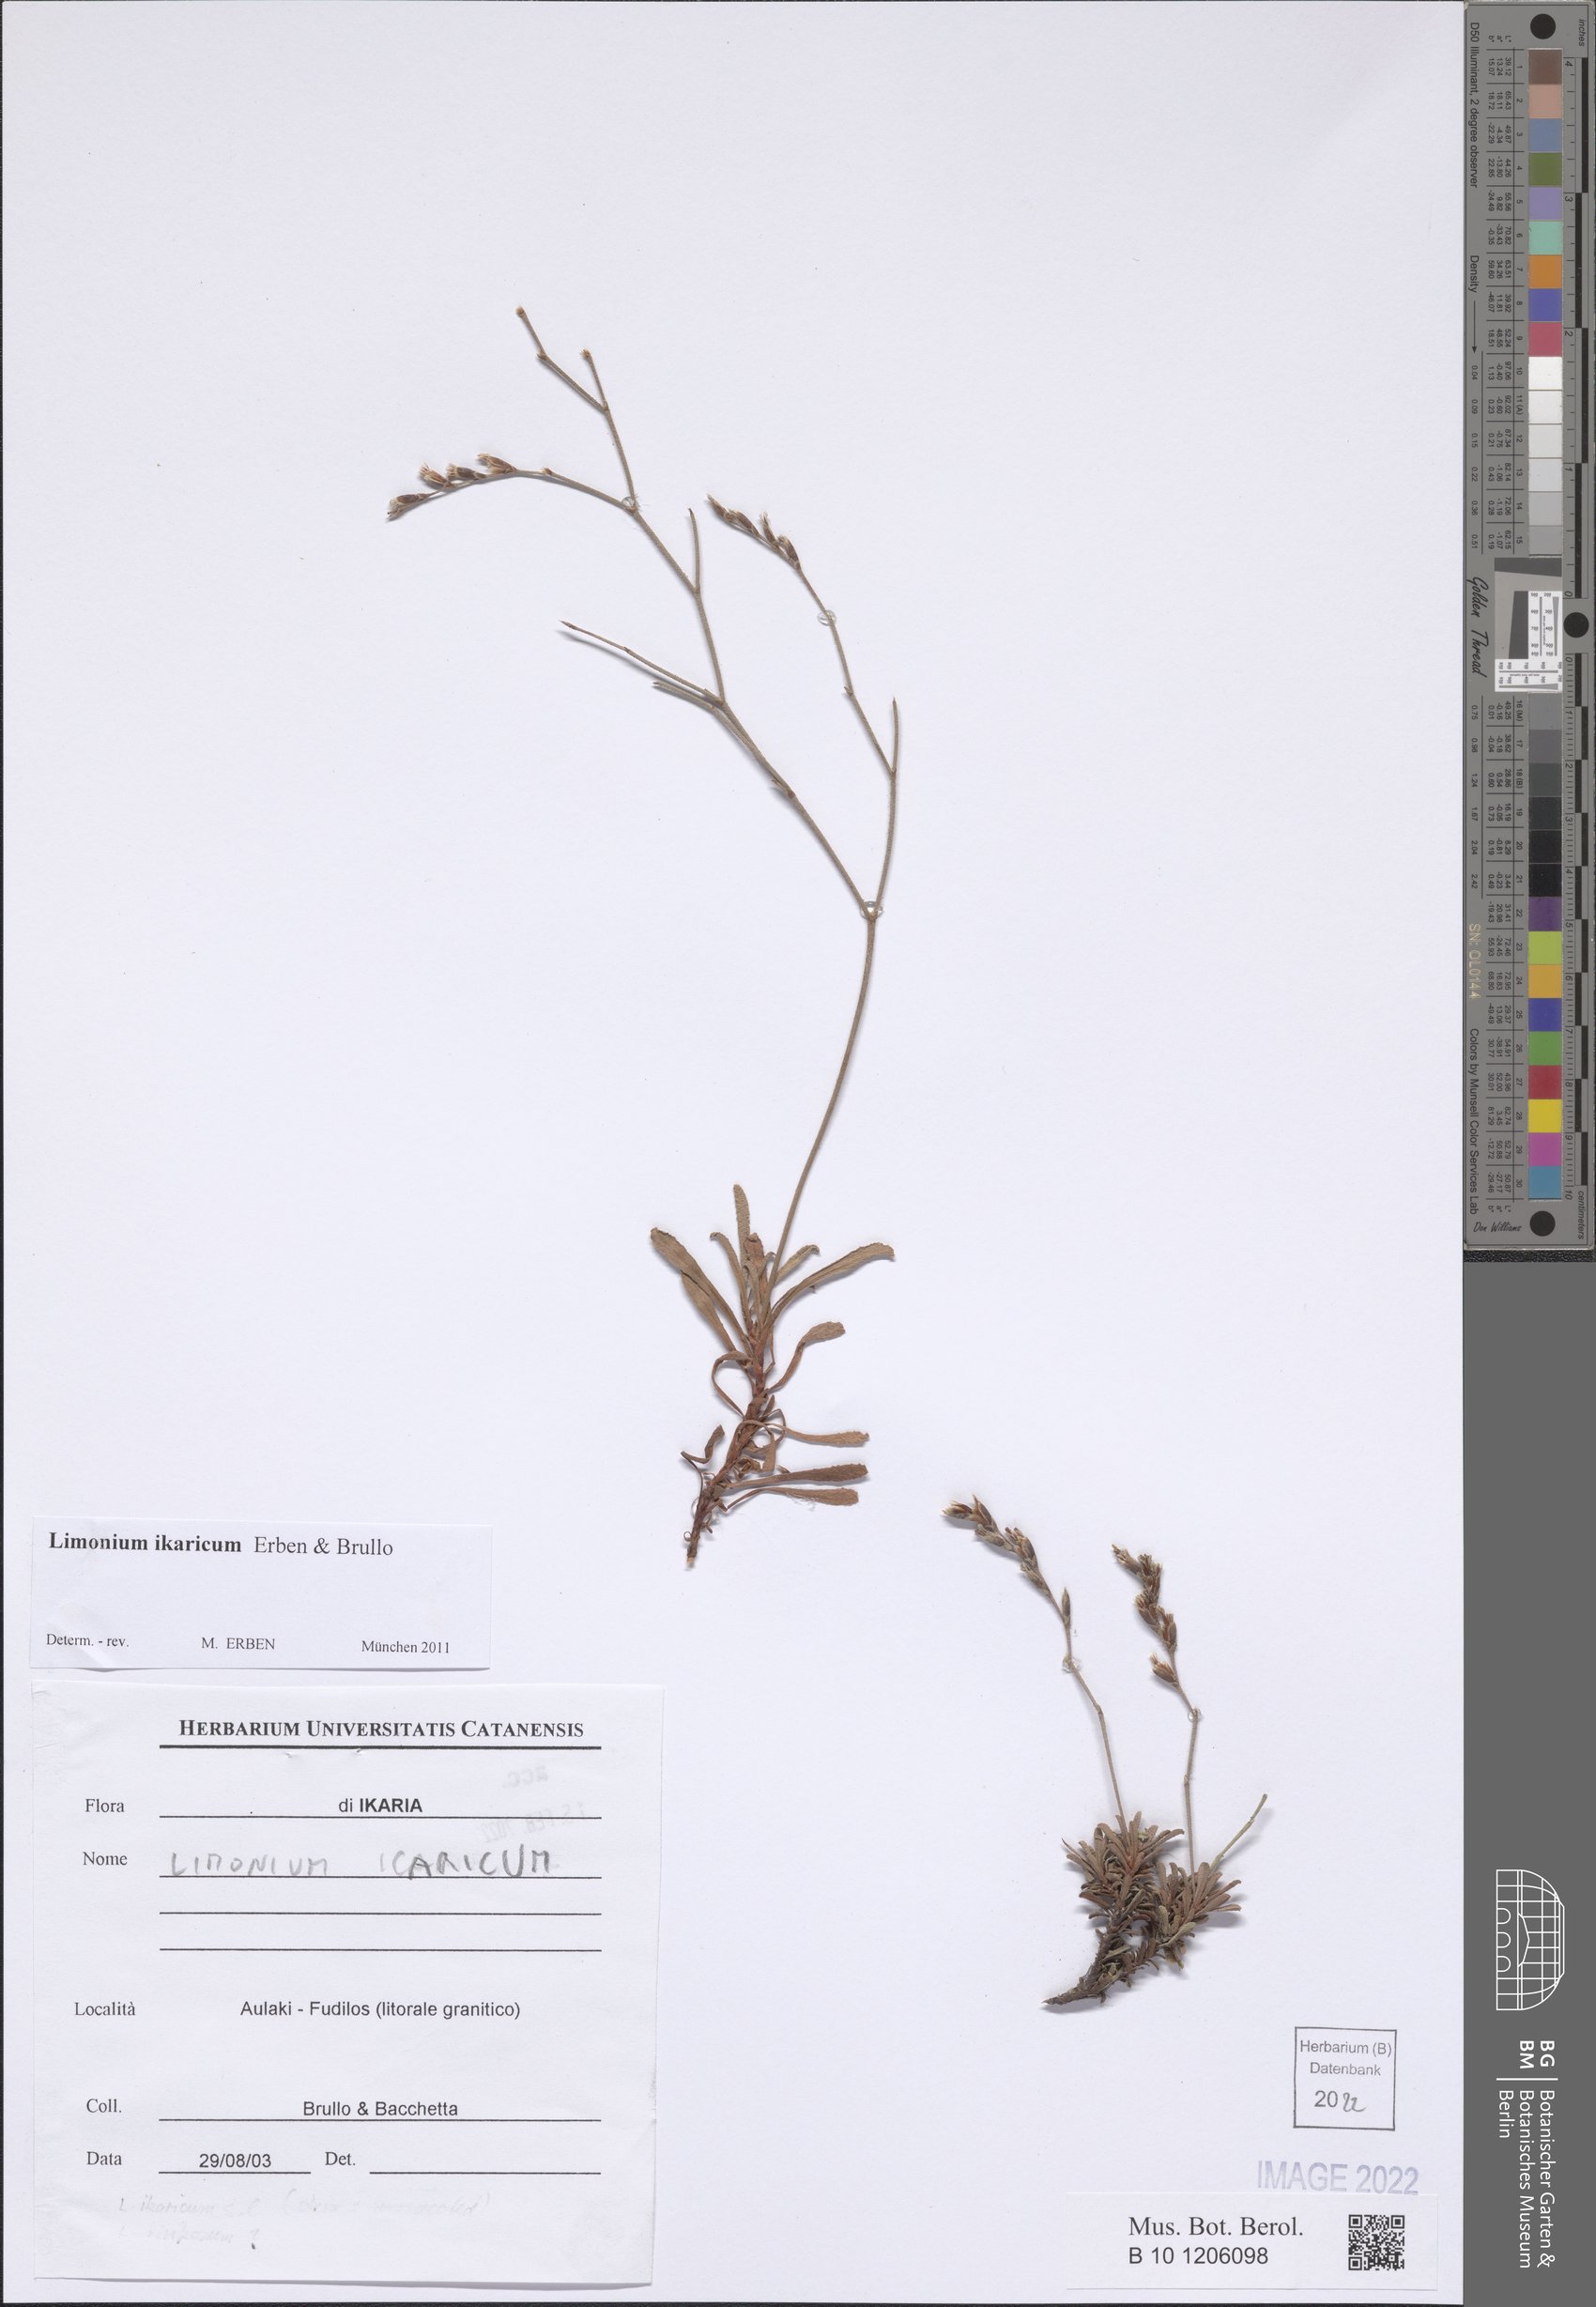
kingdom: Plantae
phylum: Tracheophyta
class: Magnoliopsida
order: Caryophyllales
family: Plumbaginaceae
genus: Limonium
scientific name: Limonium ikaricum
